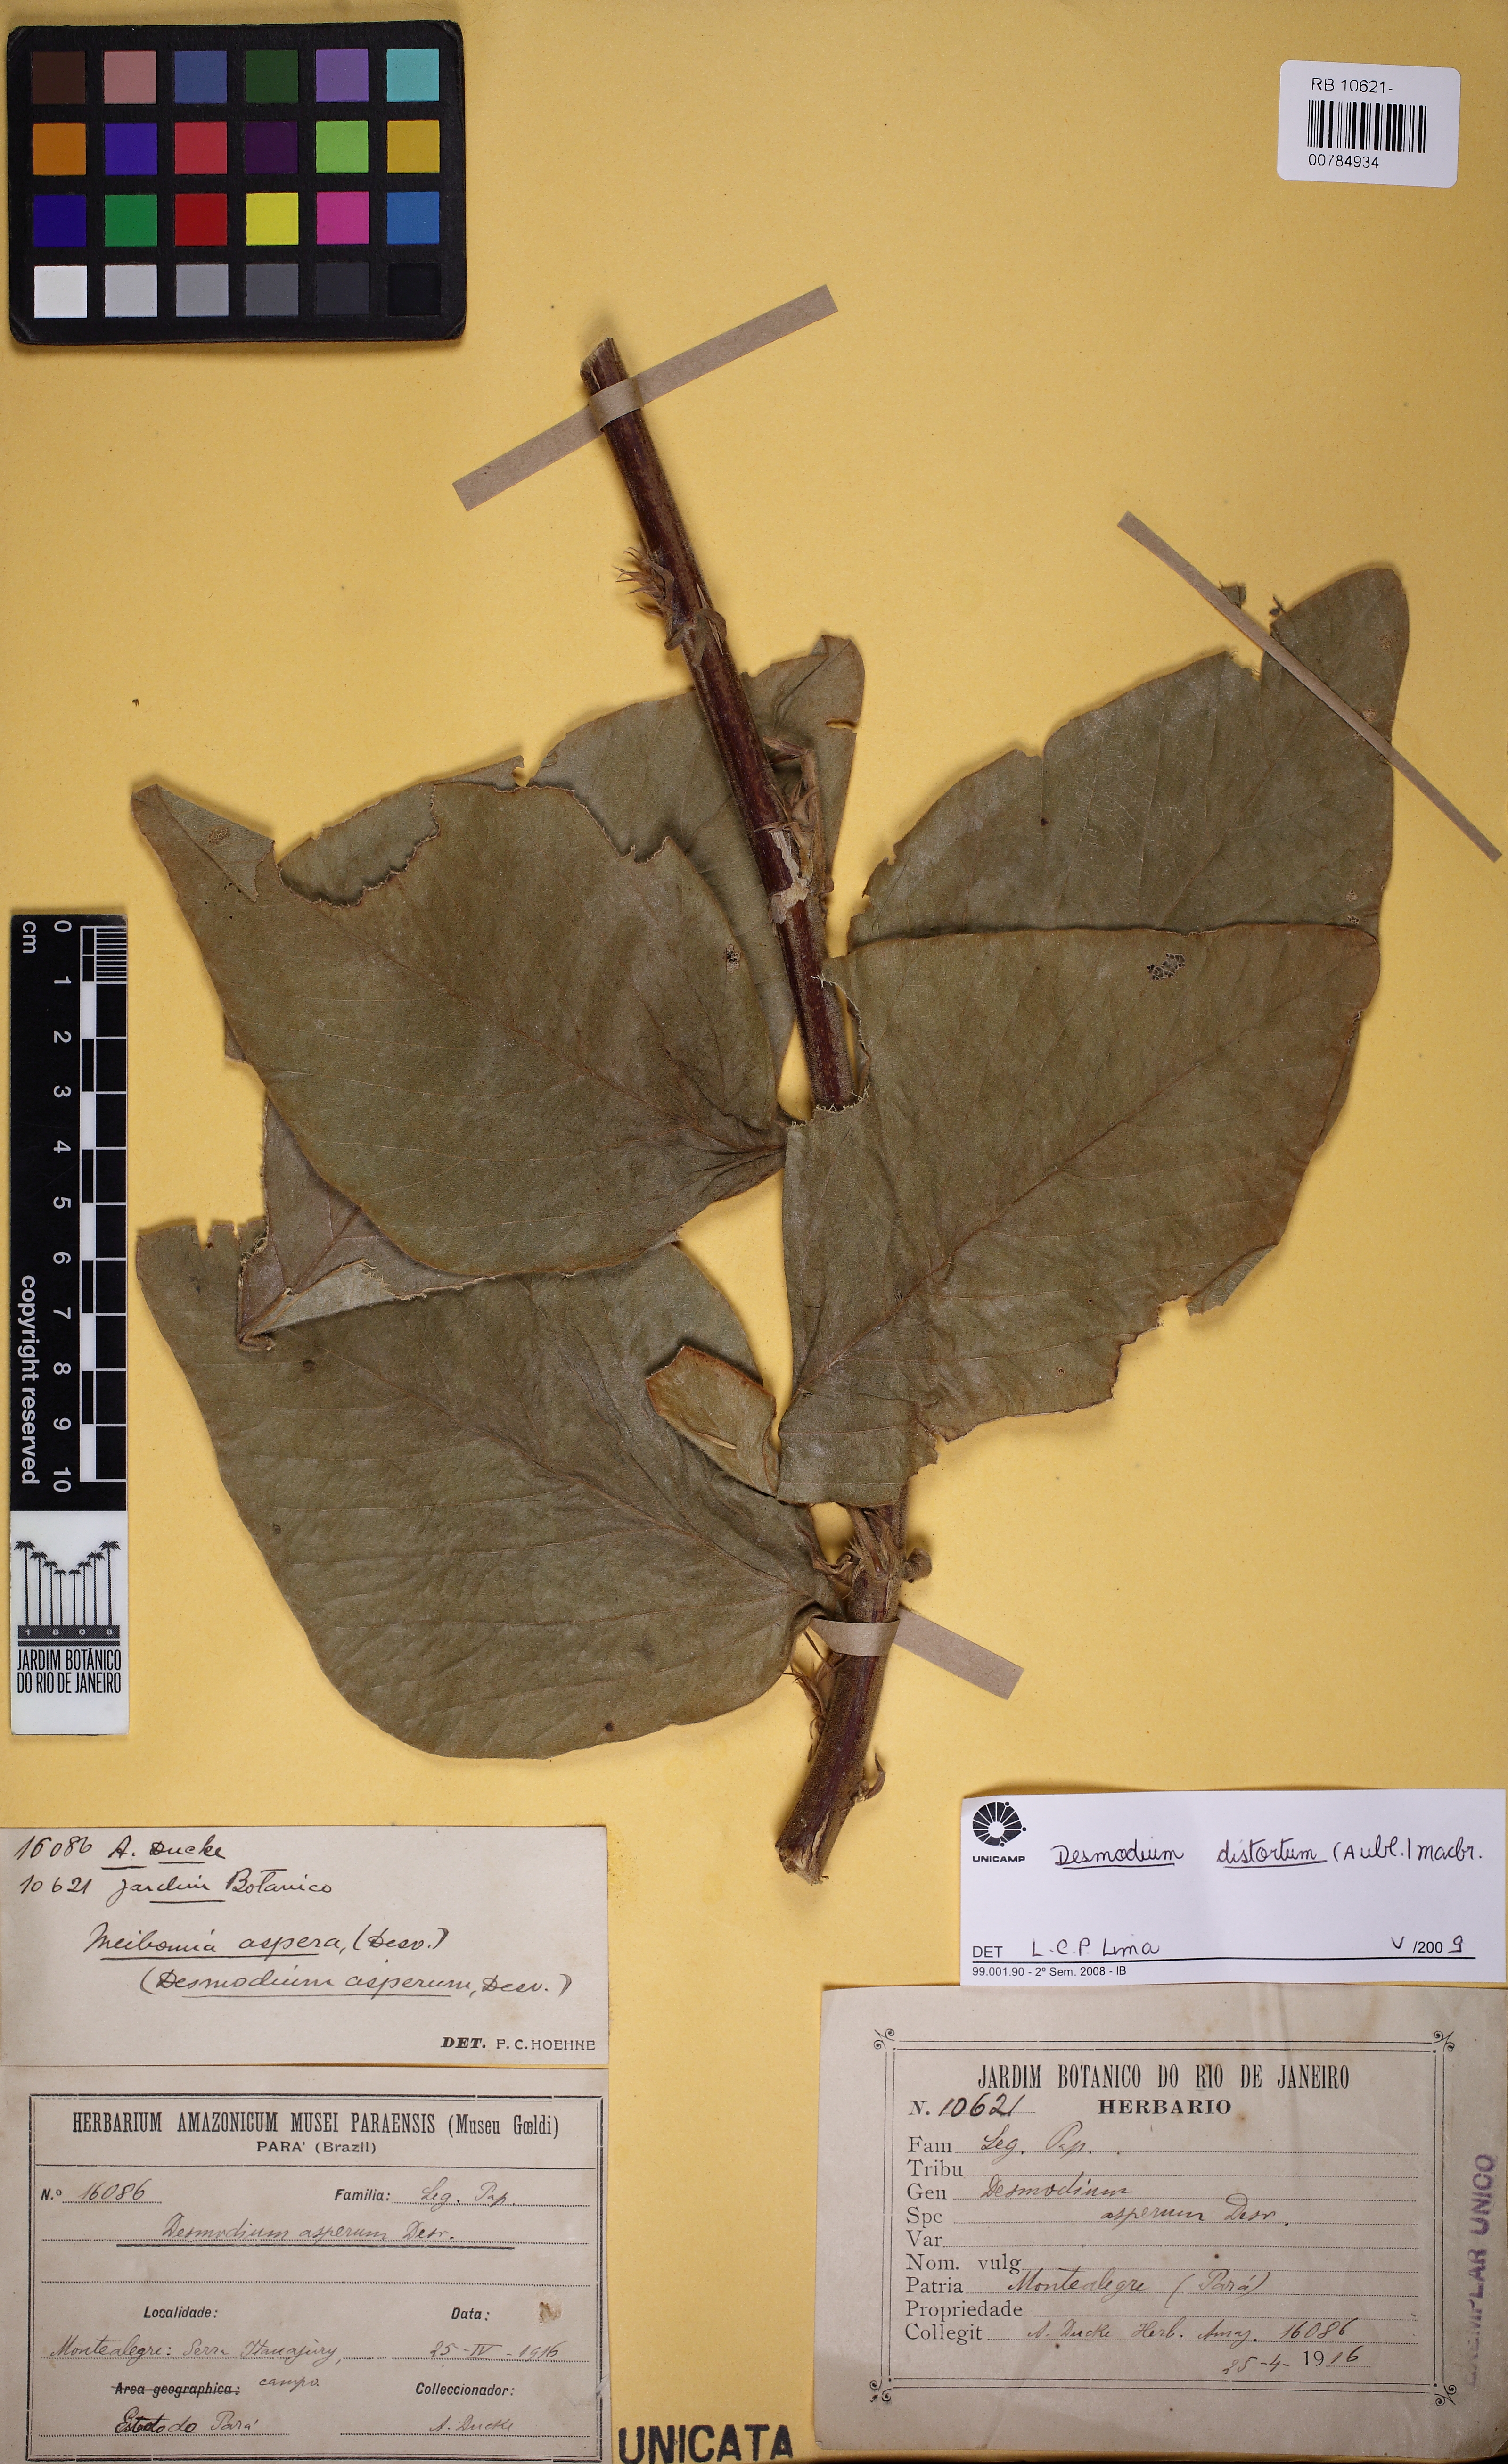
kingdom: Plantae
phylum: Tracheophyta
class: Magnoliopsida
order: Fabales
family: Fabaceae
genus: Desmodium
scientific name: Desmodium distortum
